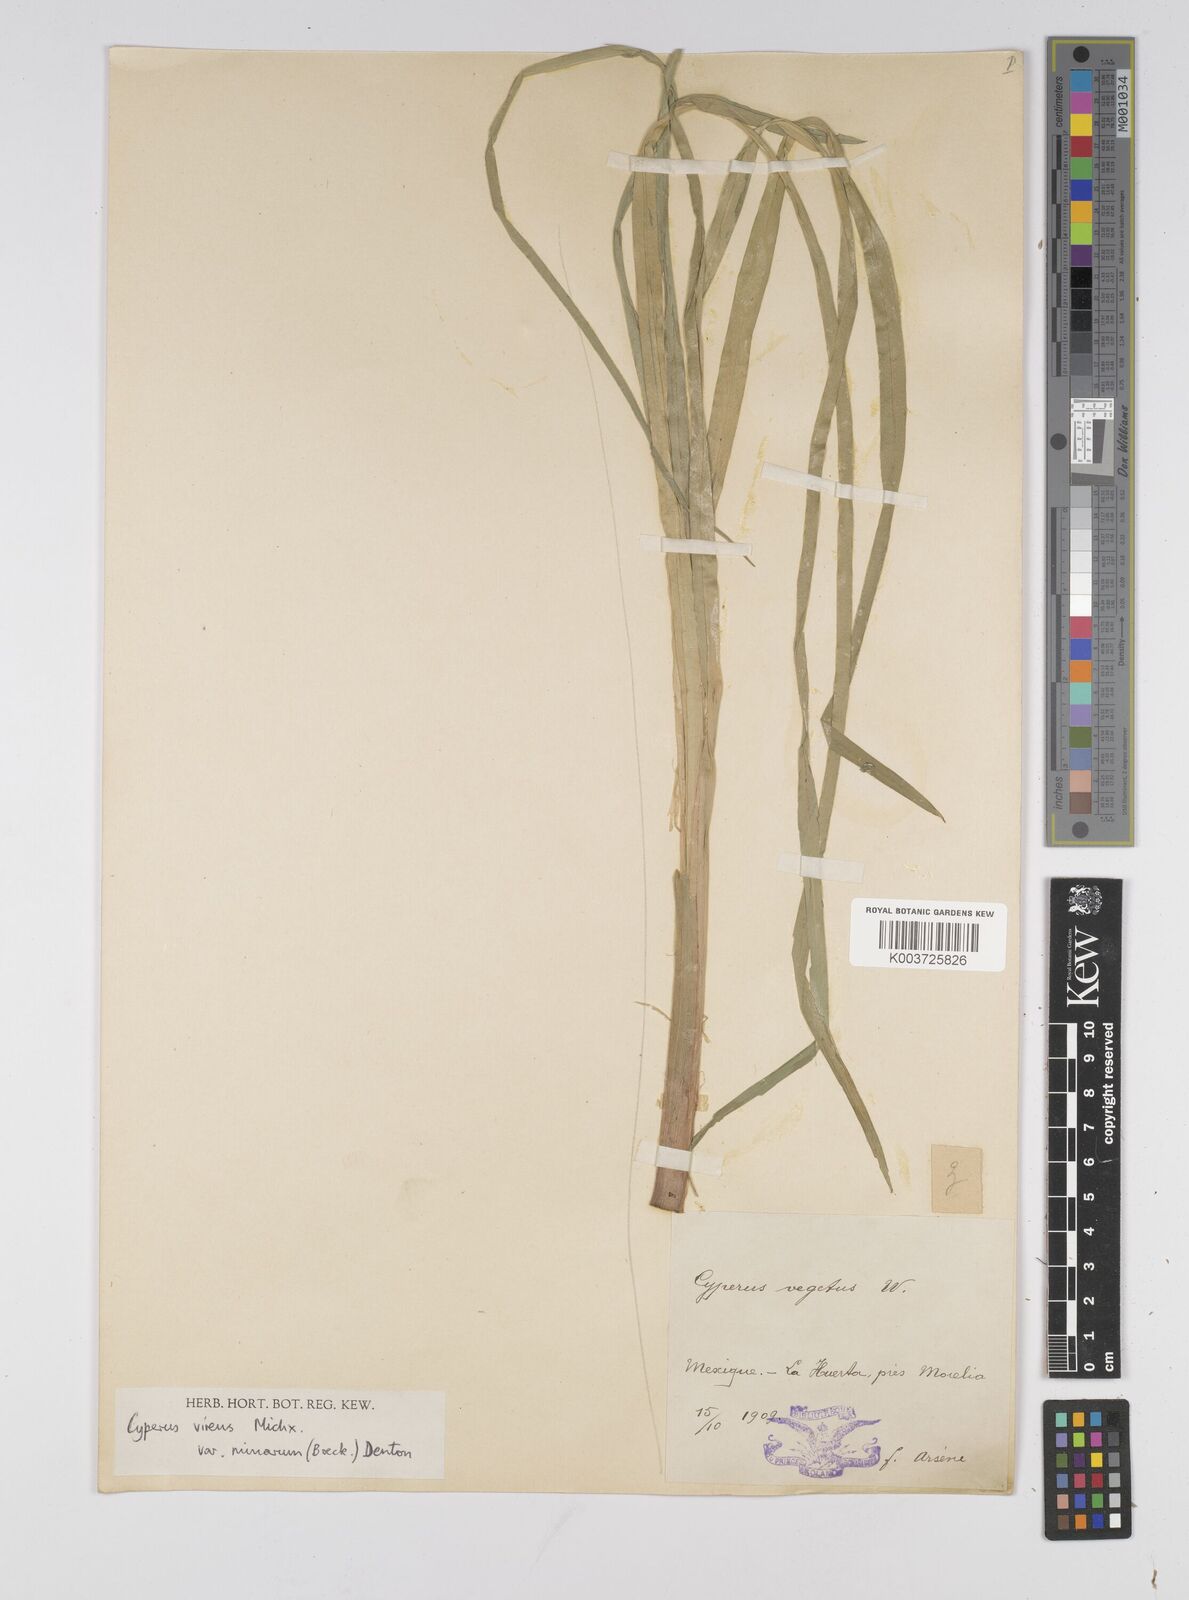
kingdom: Plantae
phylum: Tracheophyta
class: Liliopsida
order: Poales
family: Cyperaceae
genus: Cyperus
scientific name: Cyperus virens
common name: Green flatsedge
